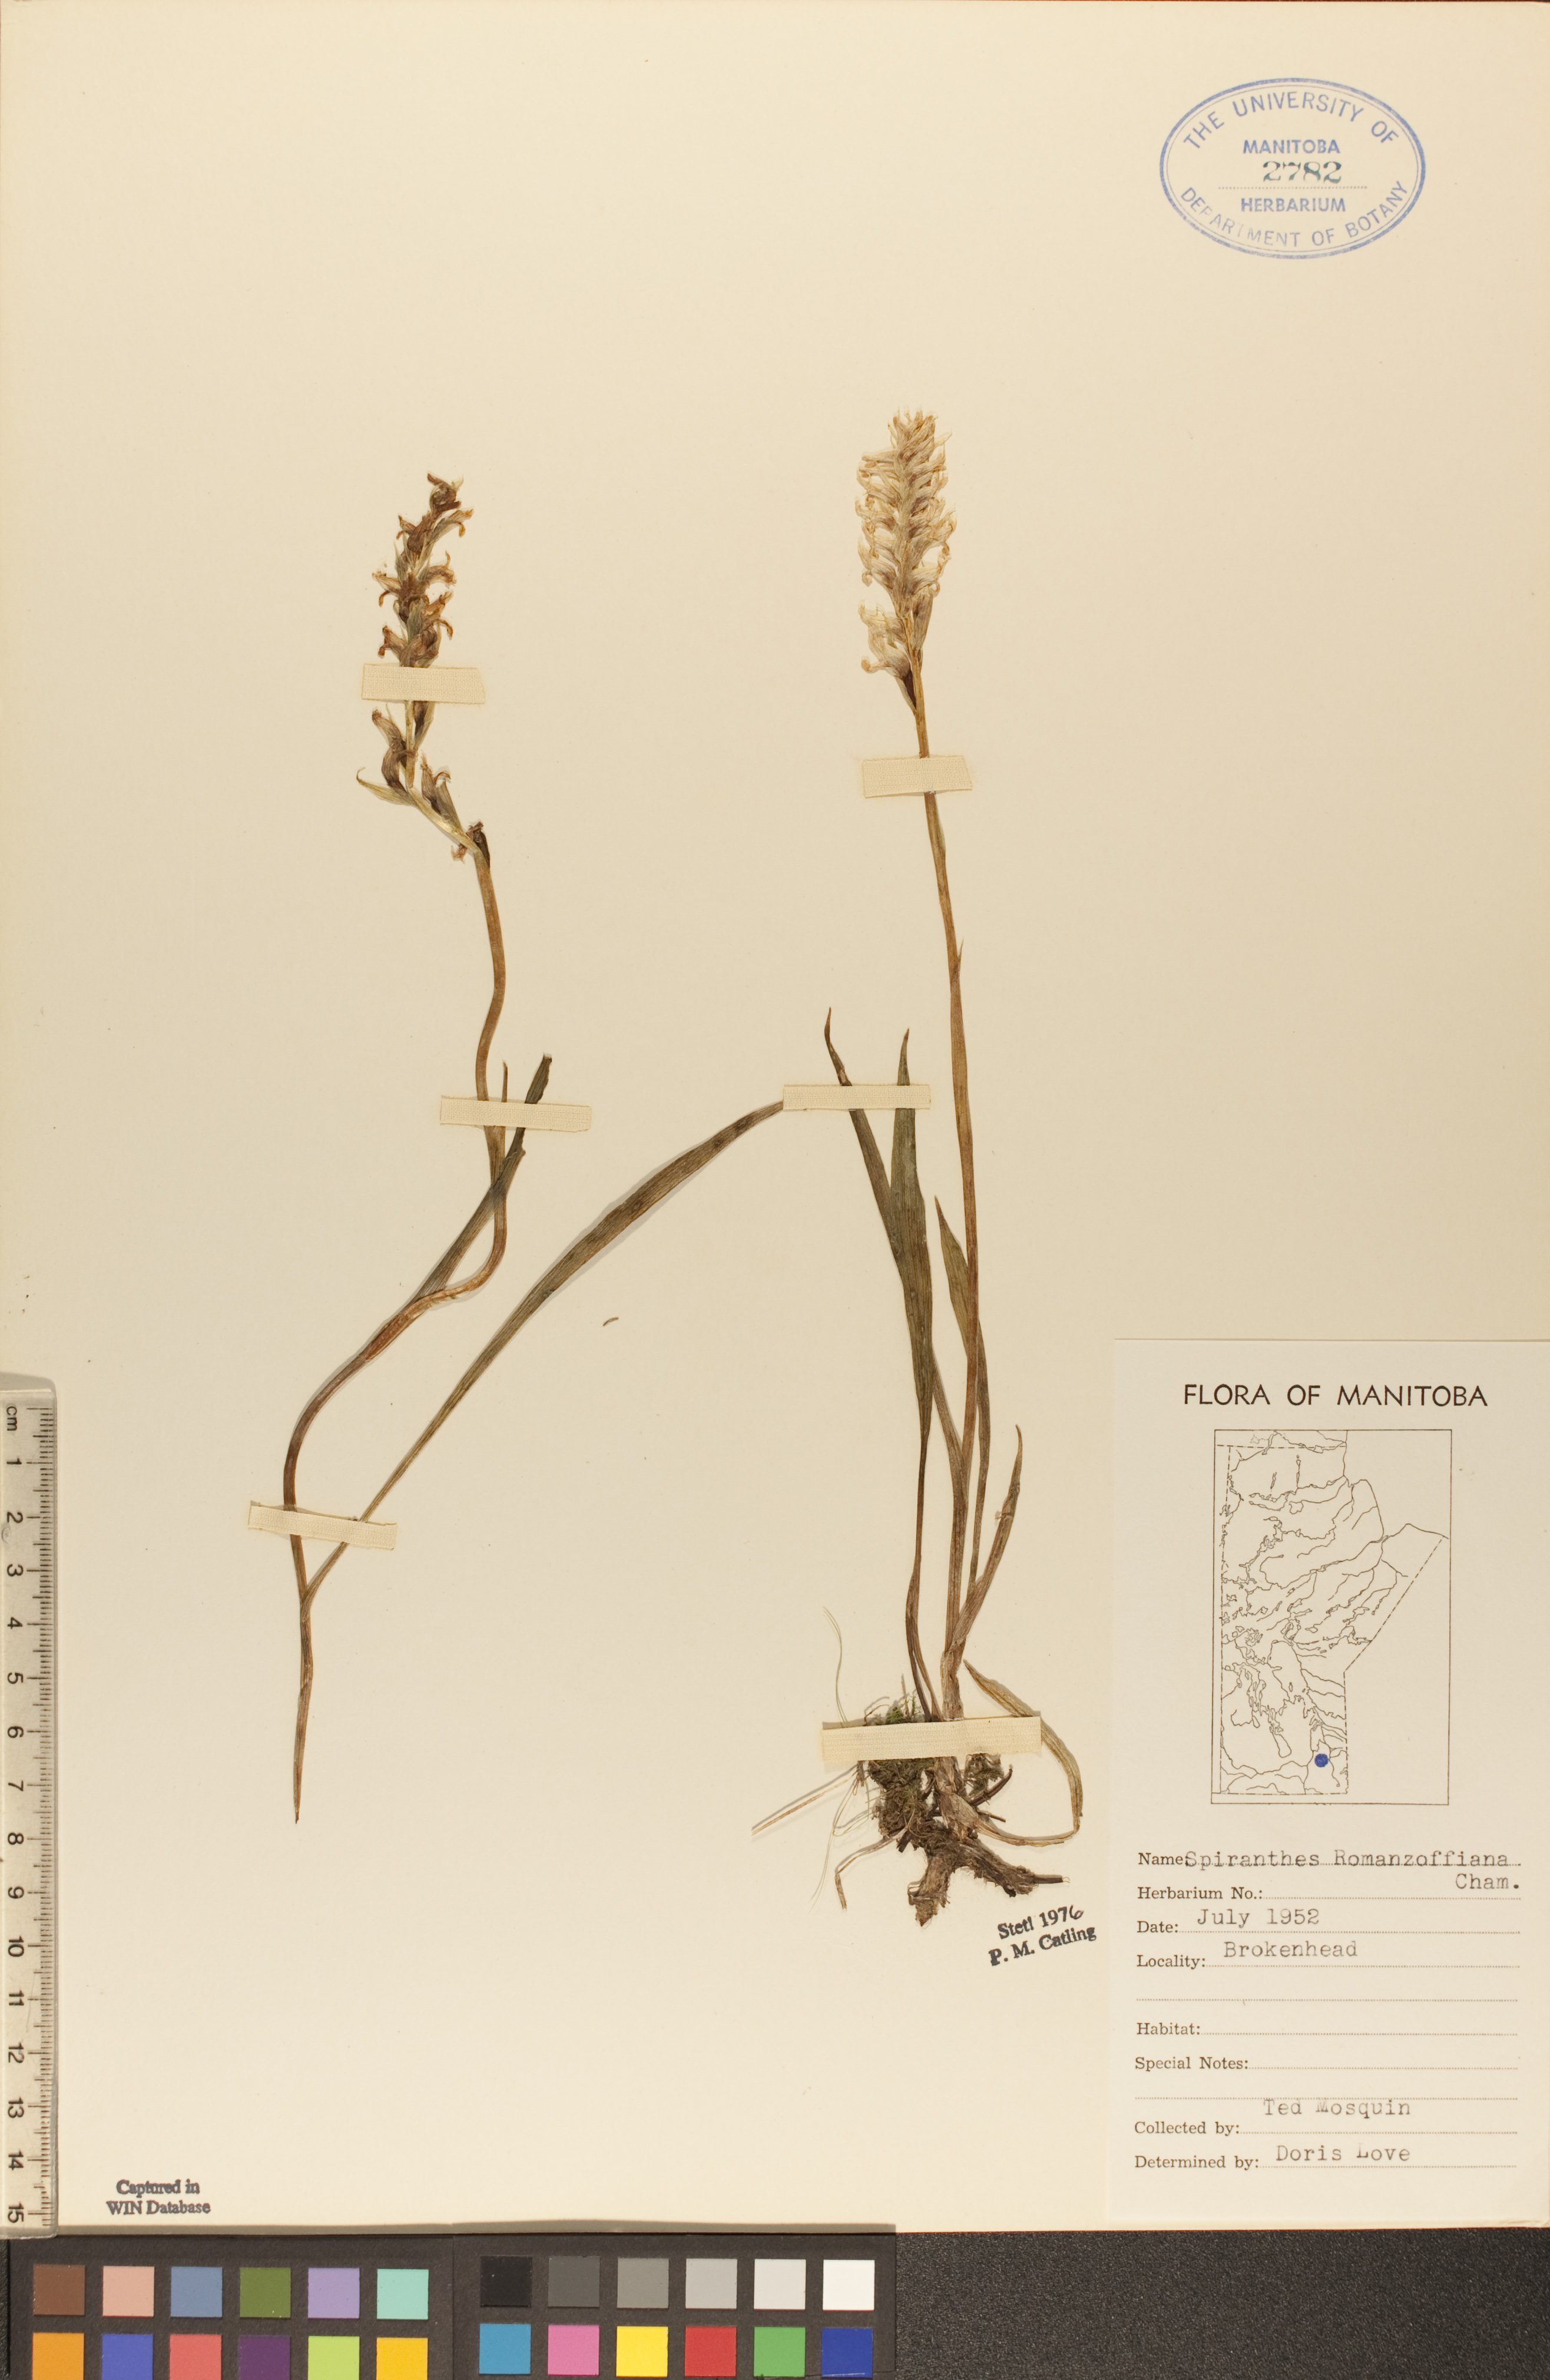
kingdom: Plantae
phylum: Tracheophyta
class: Liliopsida
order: Asparagales
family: Orchidaceae
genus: Spiranthes
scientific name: Spiranthes romanzoffiana
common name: Irish lady's-tresses
